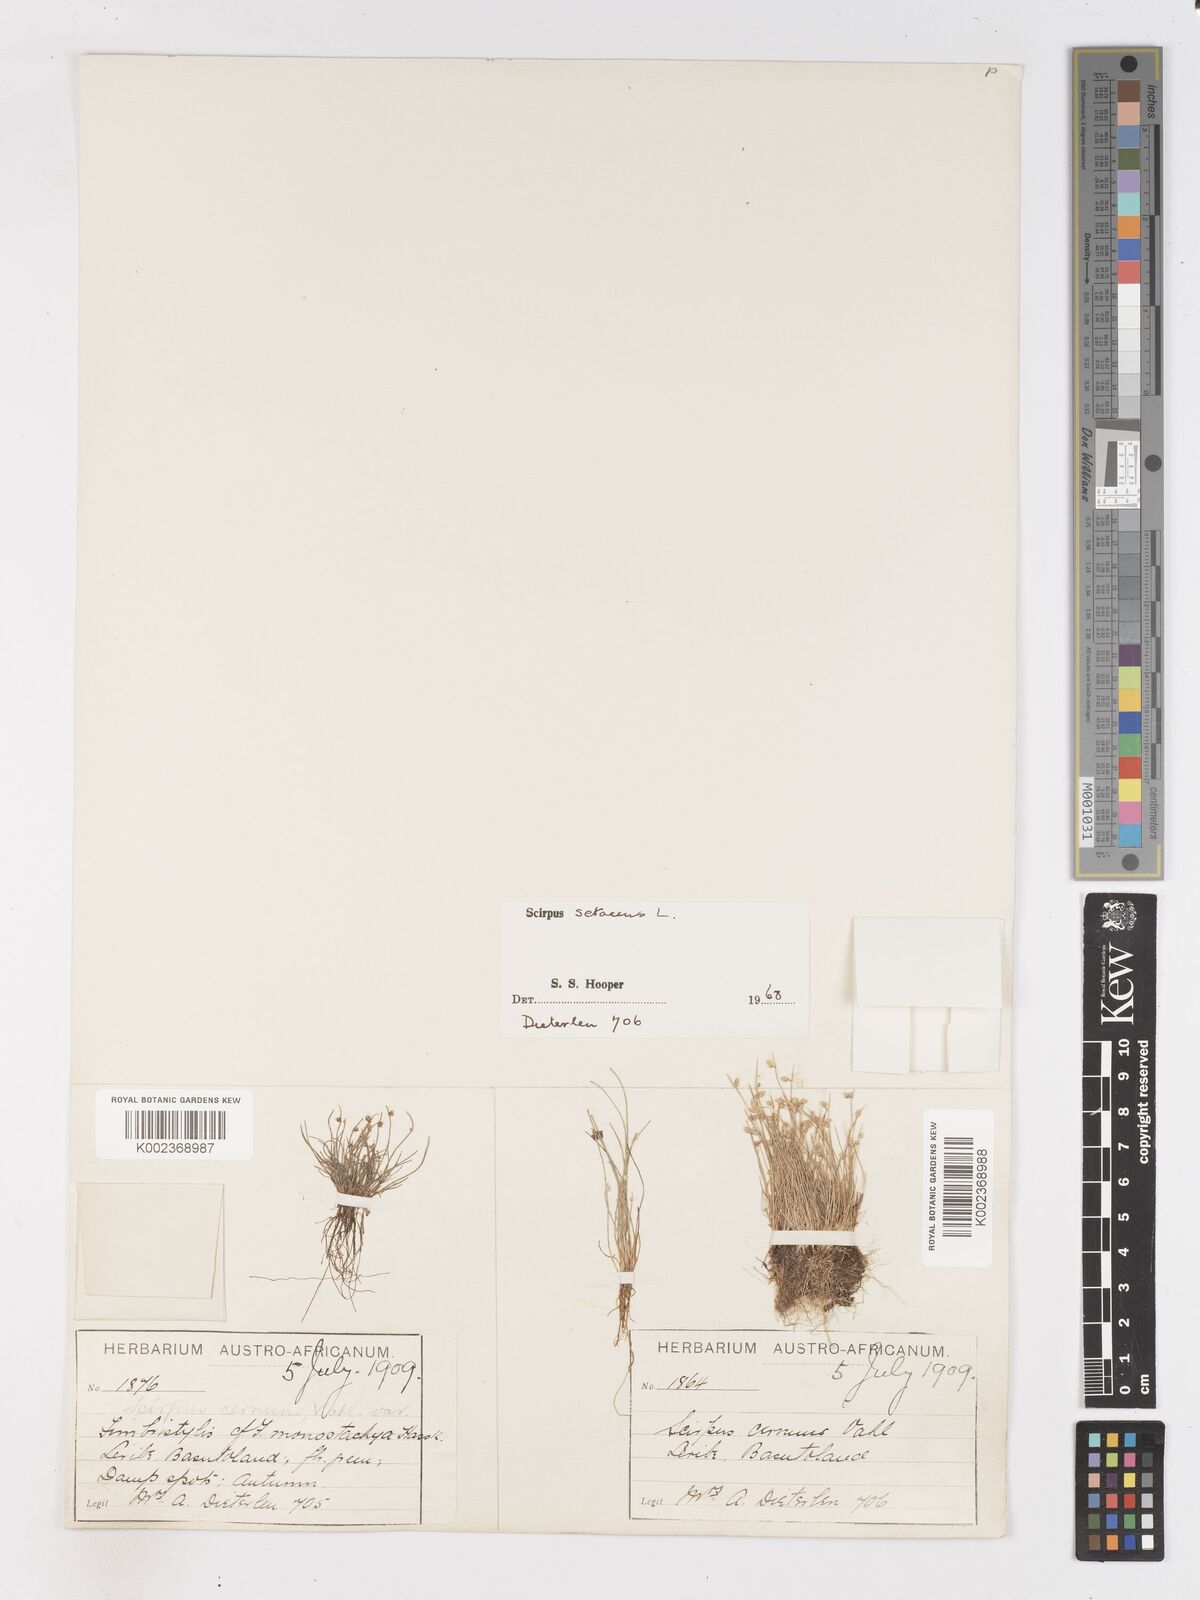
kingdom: Plantae
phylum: Tracheophyta
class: Liliopsida
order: Poales
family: Cyperaceae
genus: Isolepis
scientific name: Isolepis setacea
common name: Bristle club-rush
